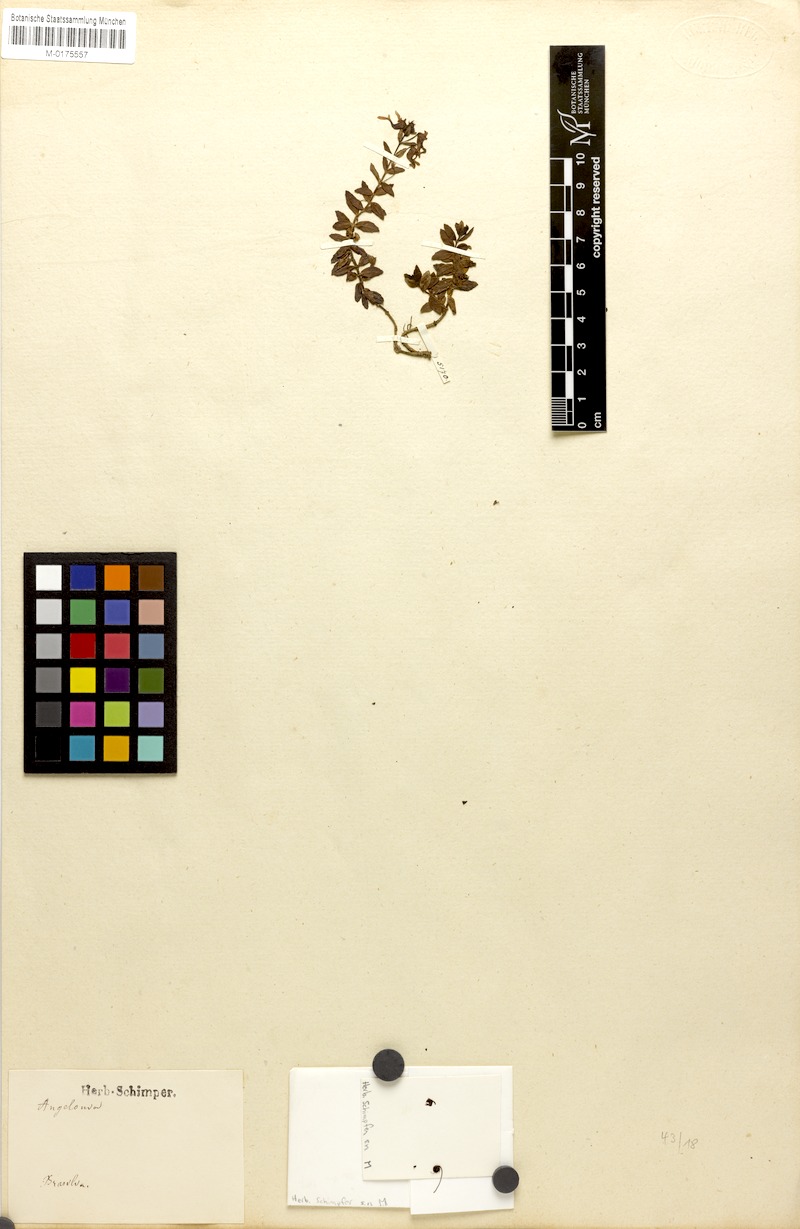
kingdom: Plantae
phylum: Tracheophyta
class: Magnoliopsida
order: Lamiales
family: Plantaginaceae
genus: Angelonia
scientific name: Angelonia cornigera
